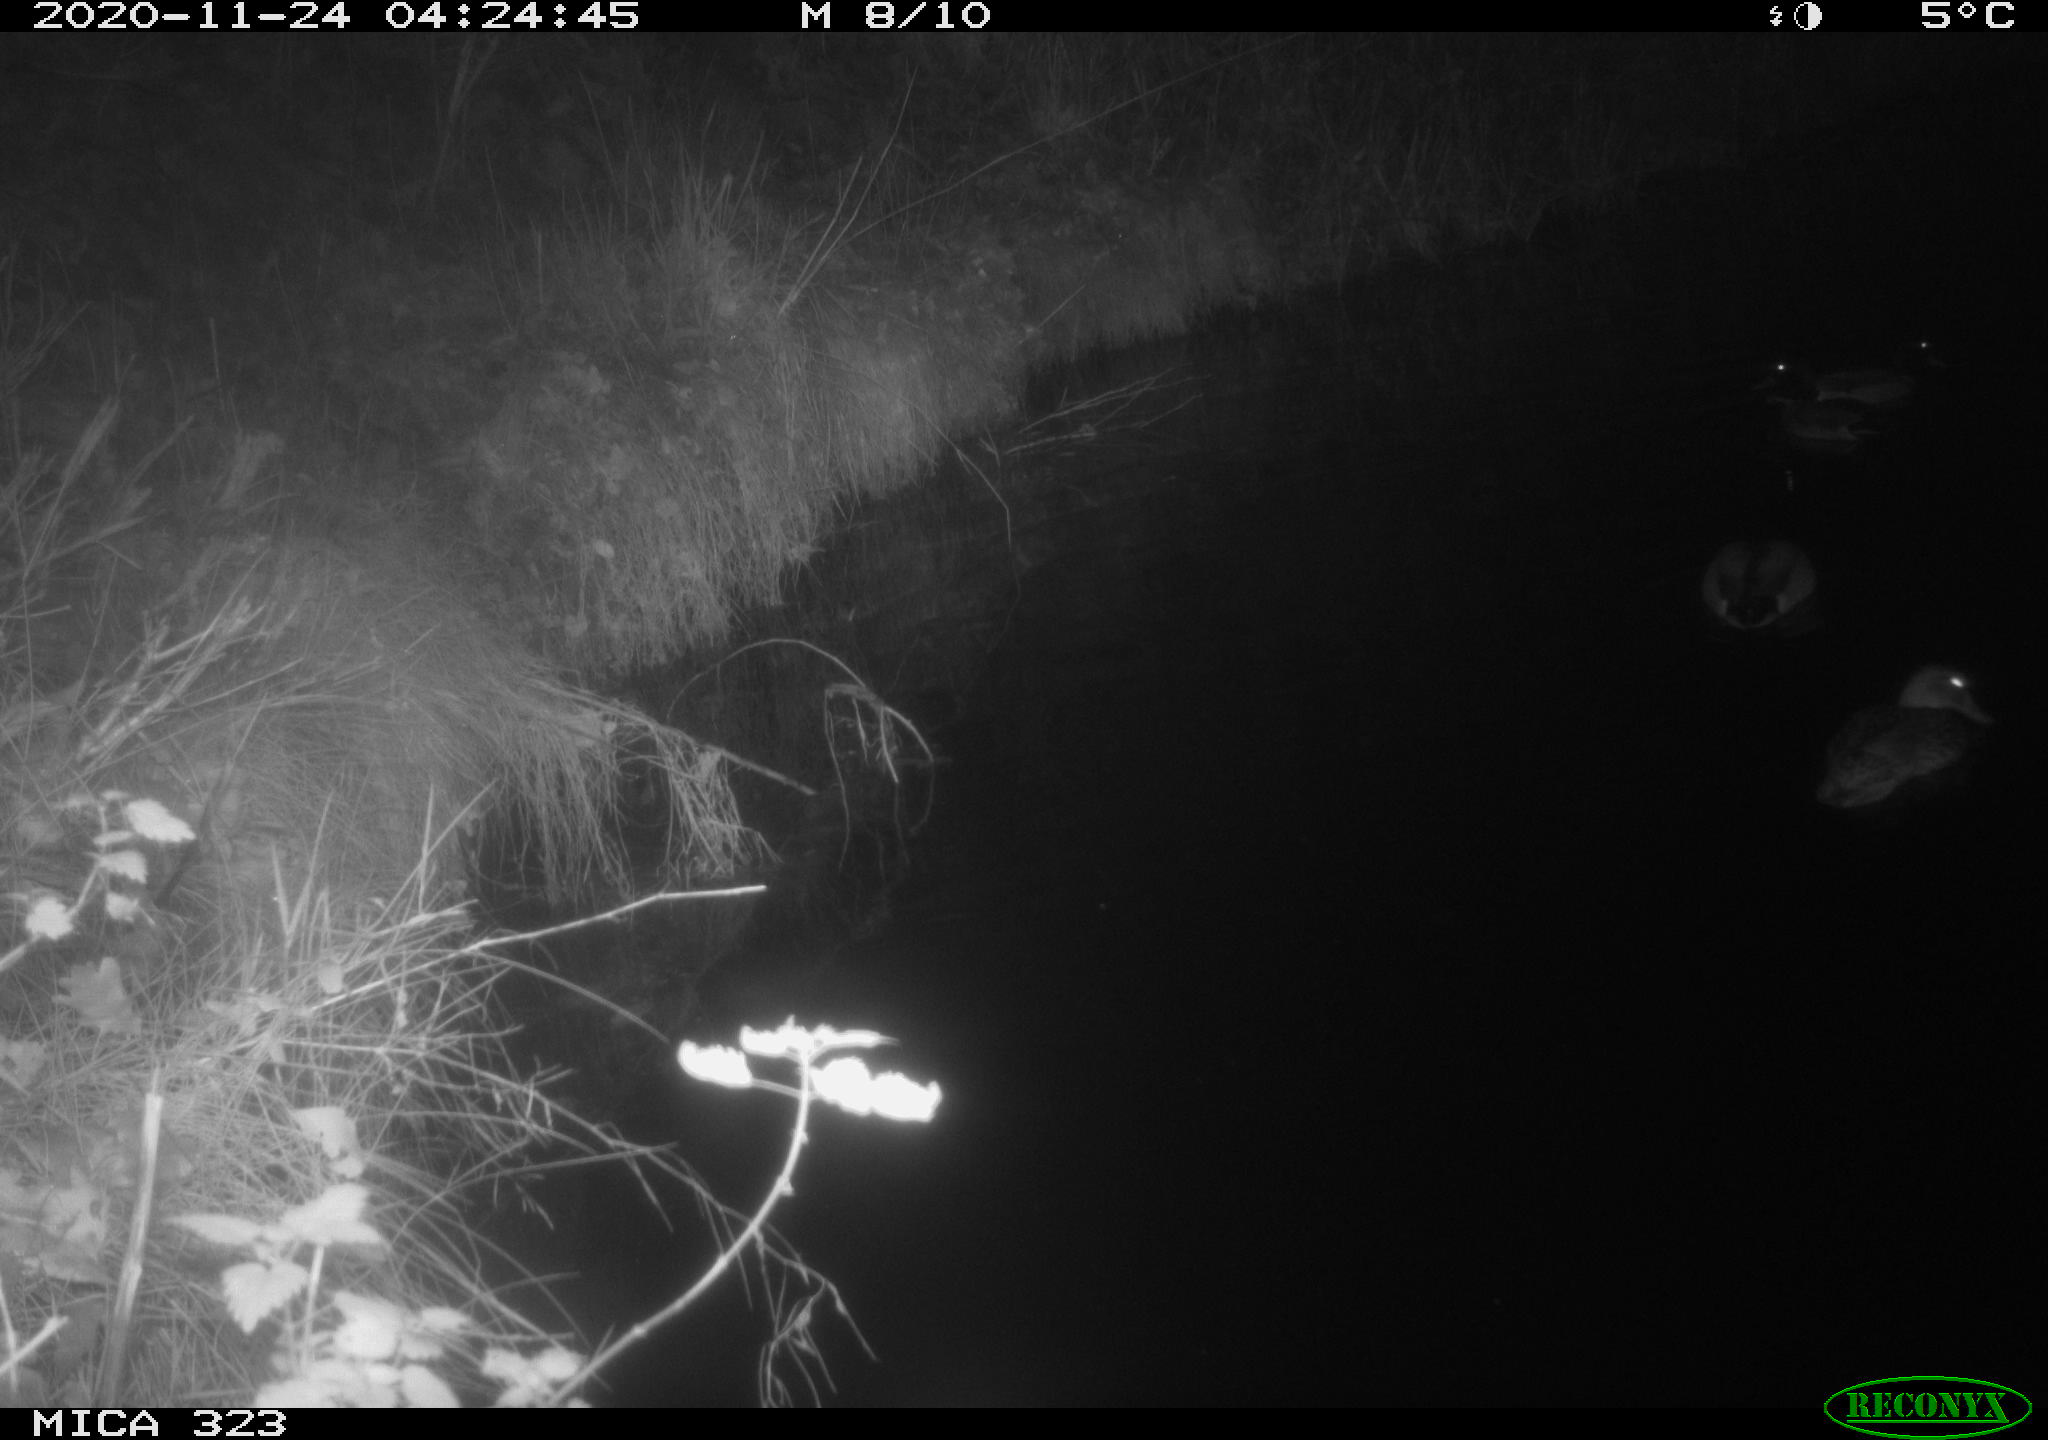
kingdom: Animalia
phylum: Chordata
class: Aves
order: Anseriformes
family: Anatidae
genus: Anas
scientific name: Anas platyrhynchos
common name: Mallard
